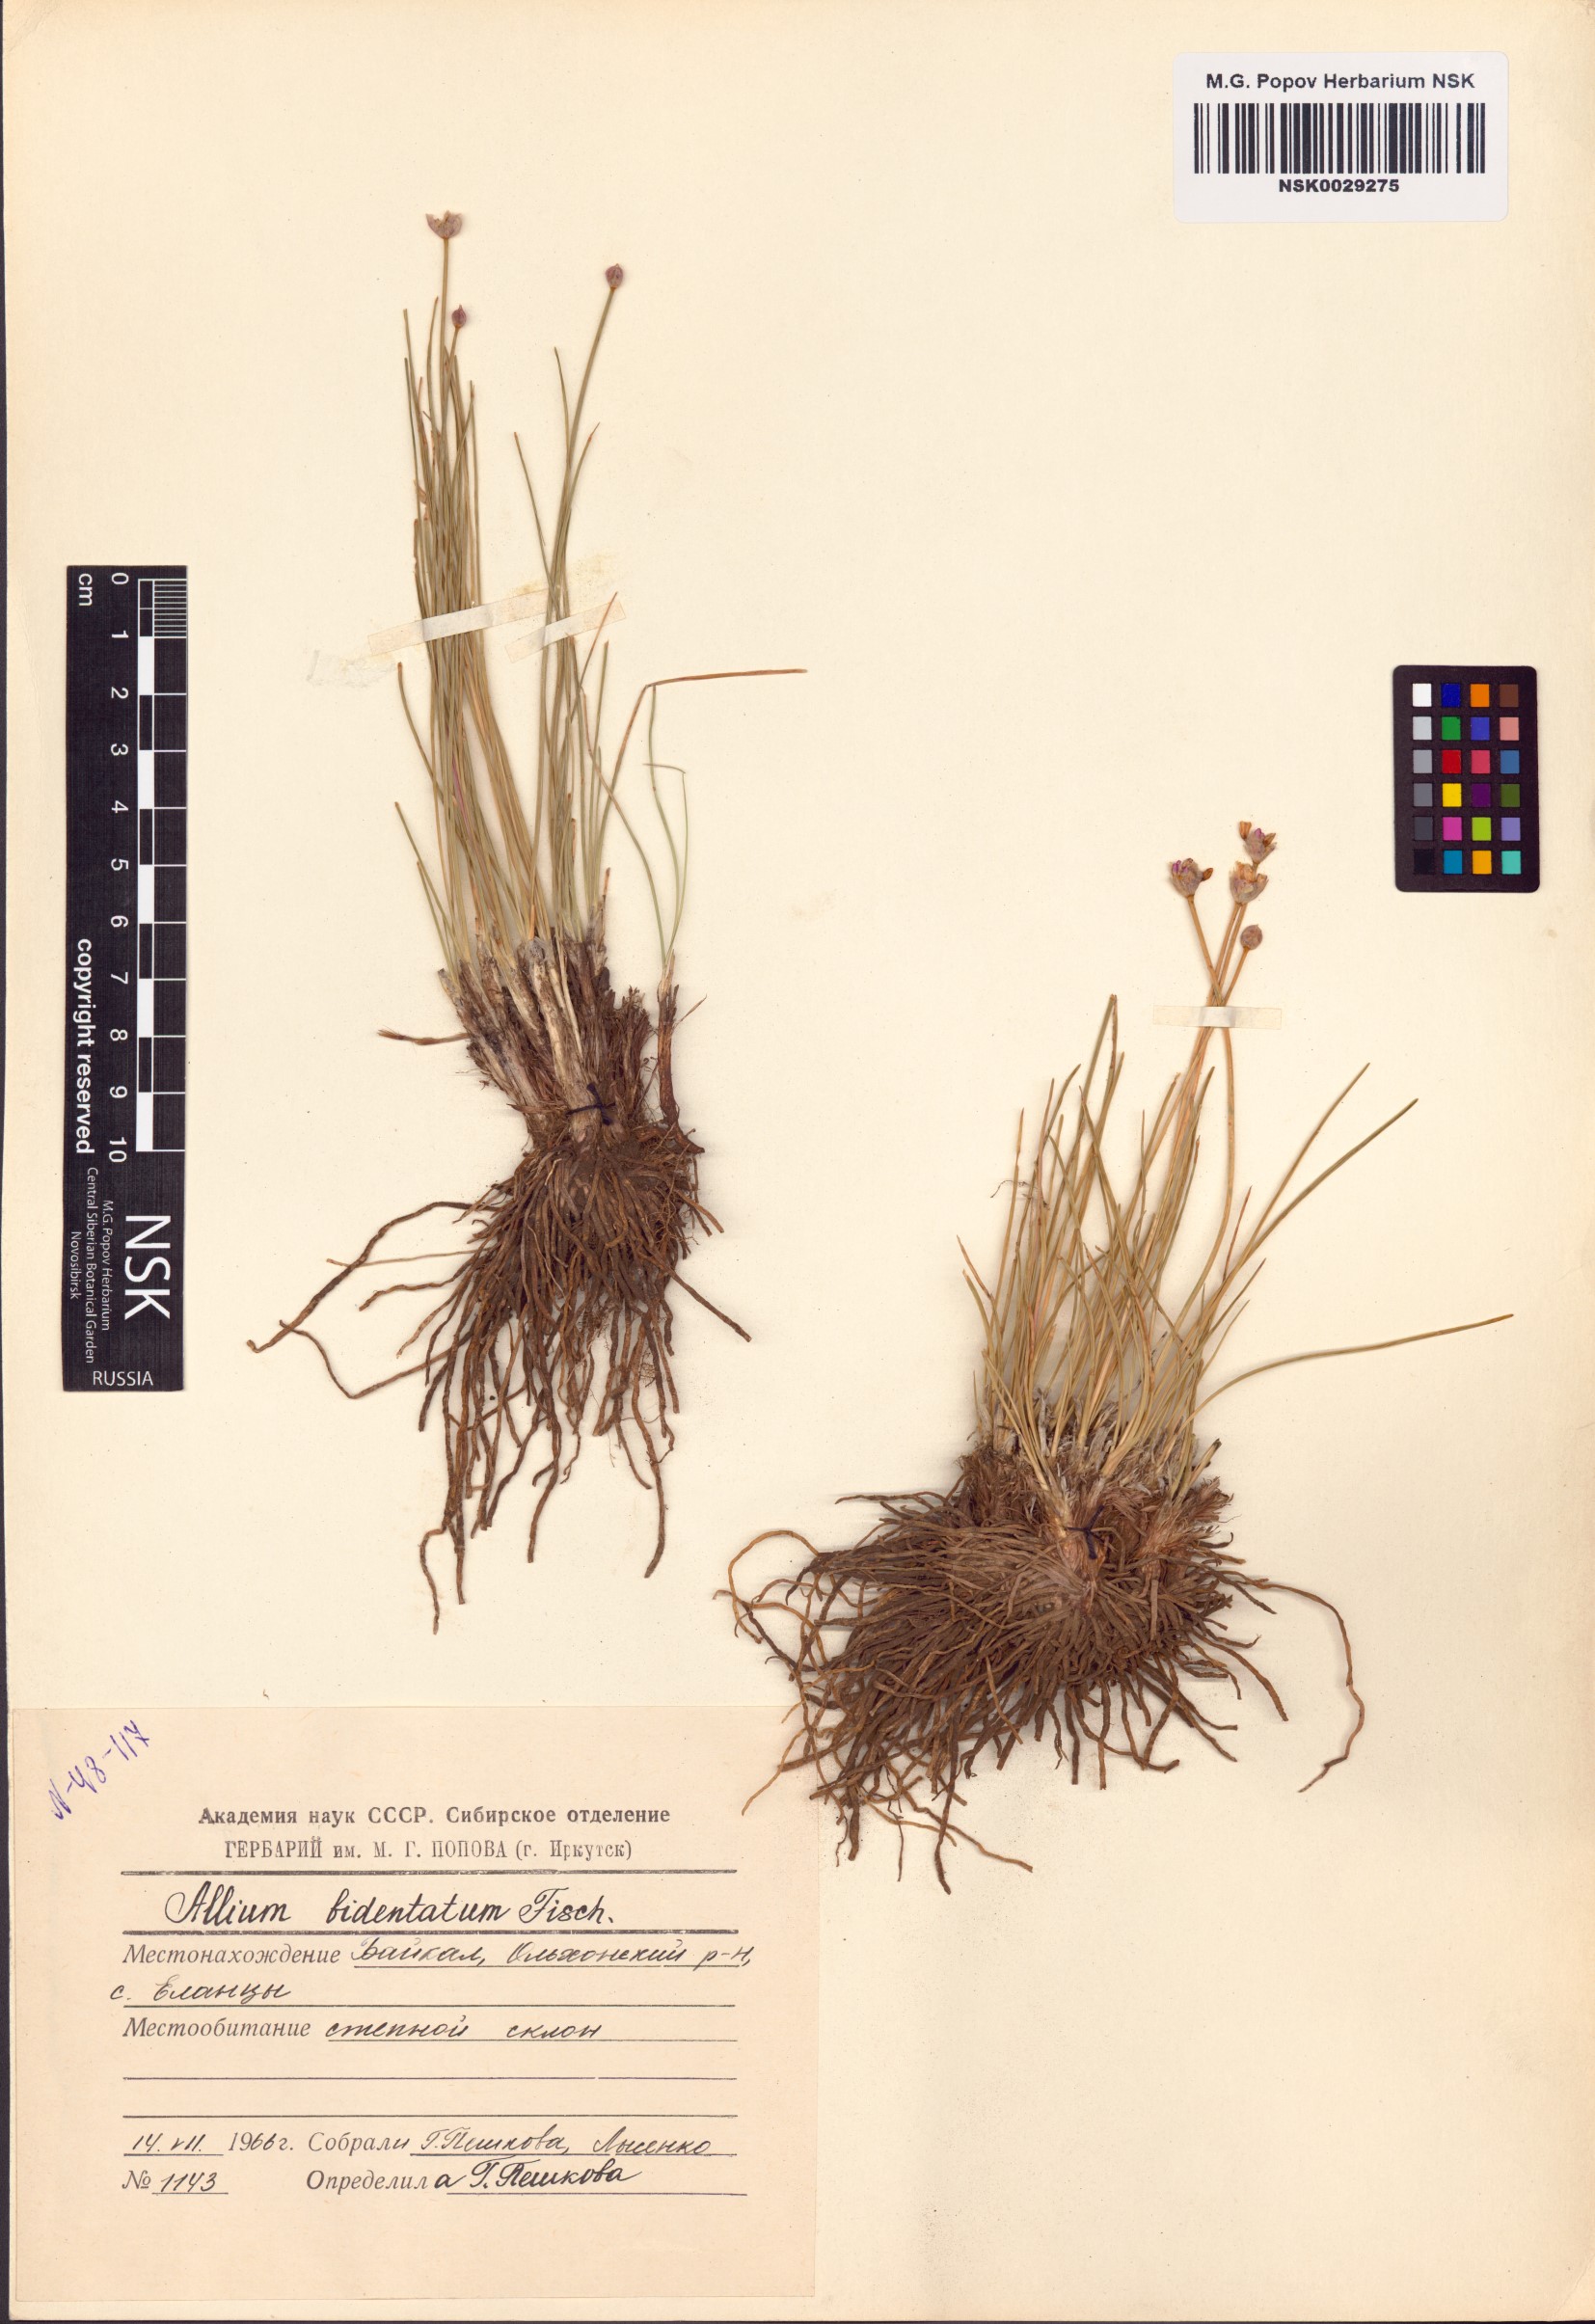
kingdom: Plantae
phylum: Tracheophyta
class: Liliopsida
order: Asparagales
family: Amaryllidaceae
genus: Allium
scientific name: Allium bidentatum
